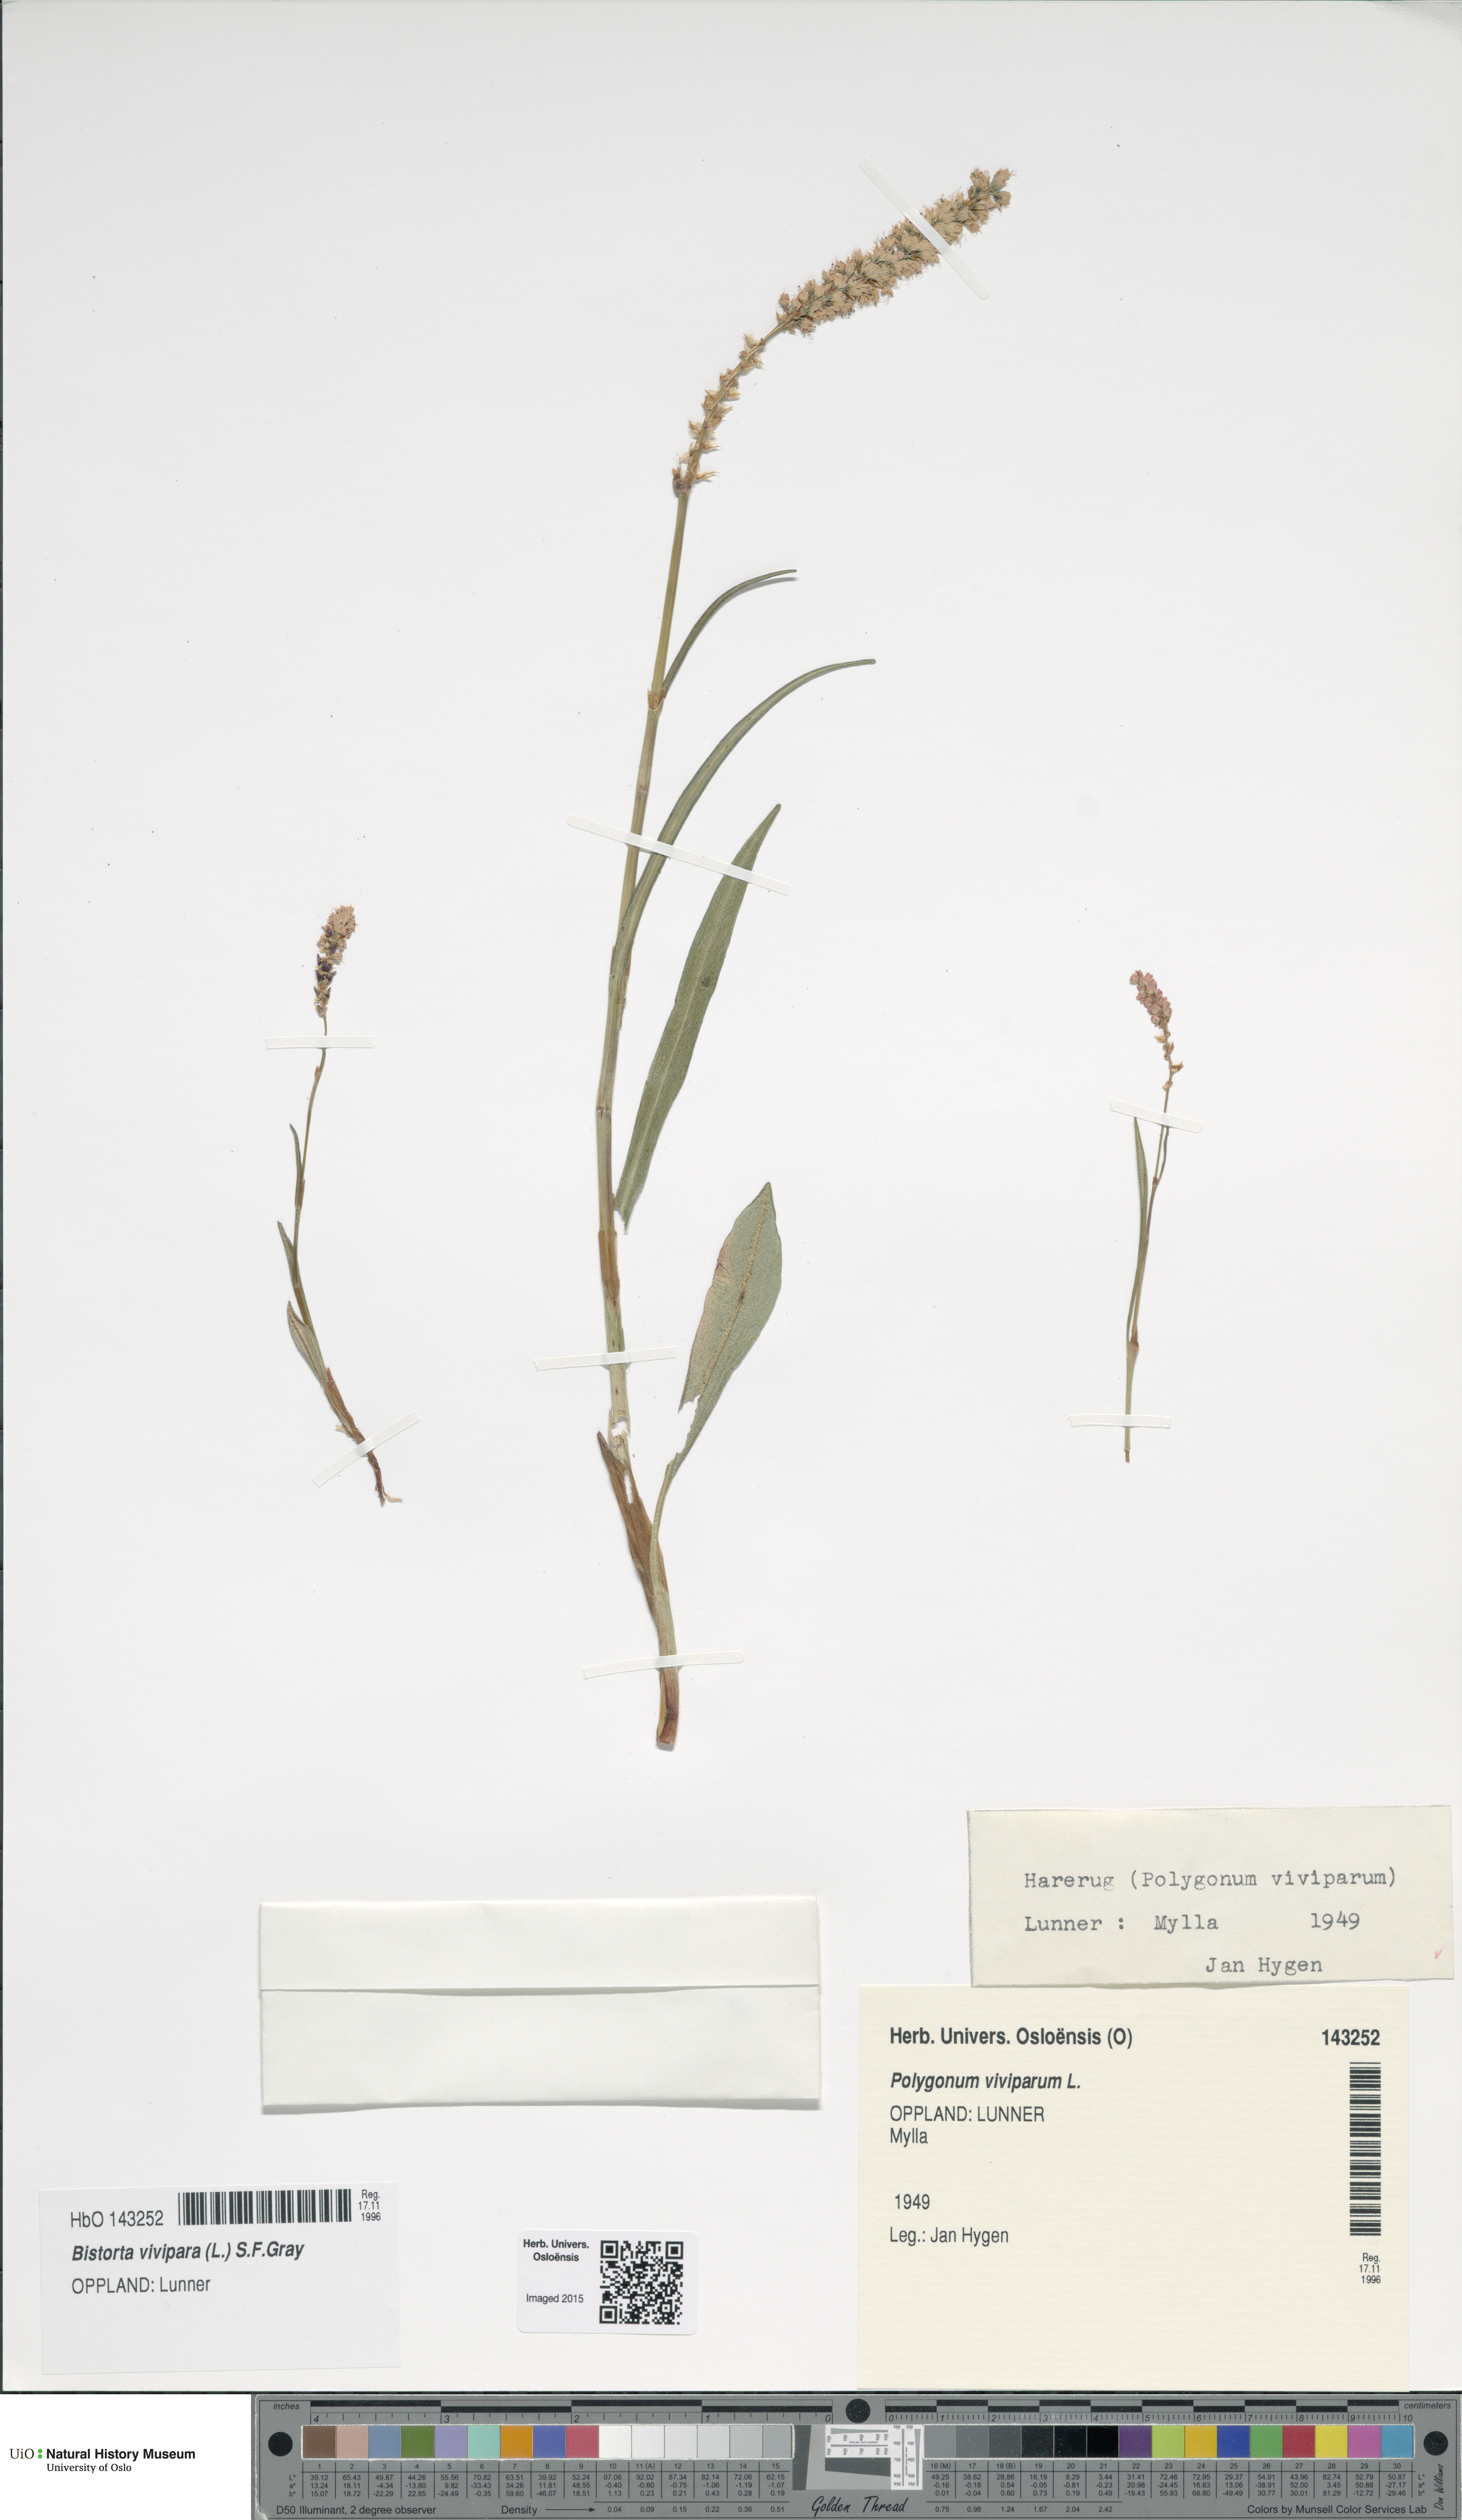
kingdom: Plantae
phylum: Tracheophyta
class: Magnoliopsida
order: Caryophyllales
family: Polygonaceae
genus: Bistorta
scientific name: Bistorta vivipara
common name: Alpine bistort
